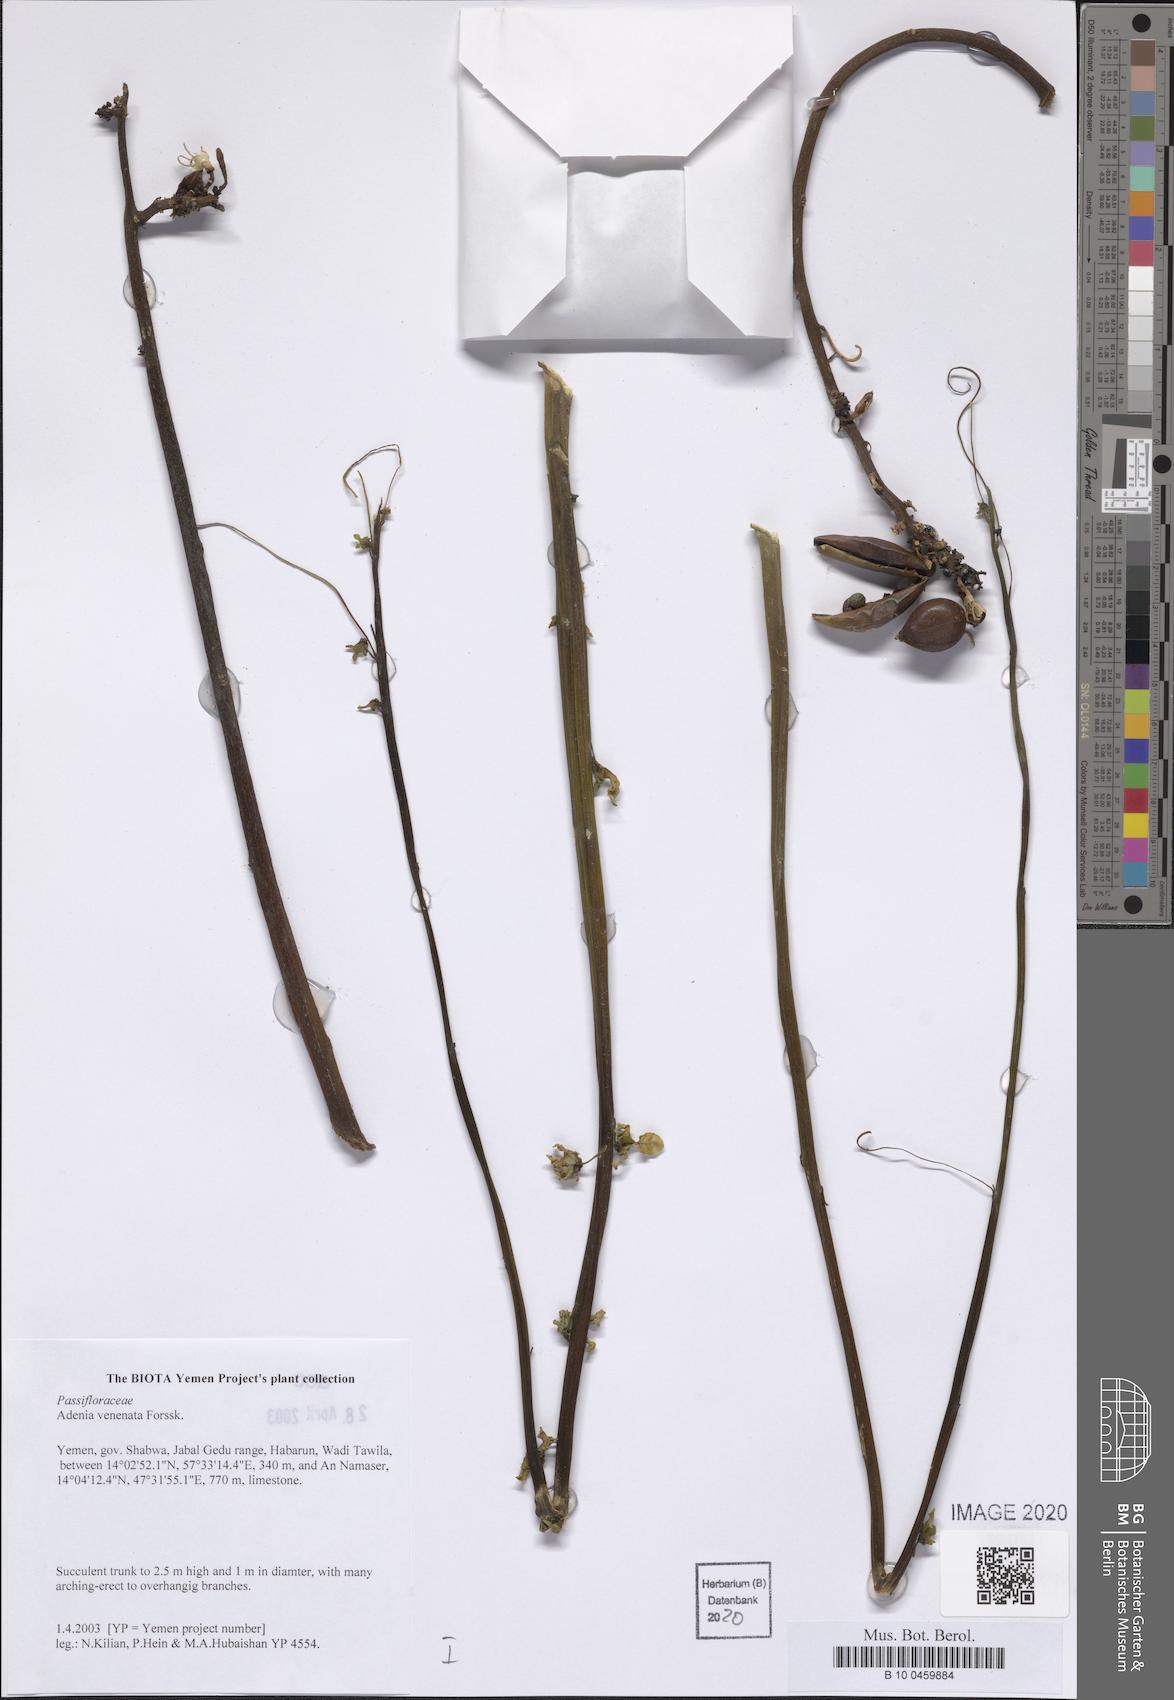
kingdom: Plantae
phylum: Tracheophyta
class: Magnoliopsida
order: Malpighiales
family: Passifloraceae
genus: Adenia
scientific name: Adenia venenata
